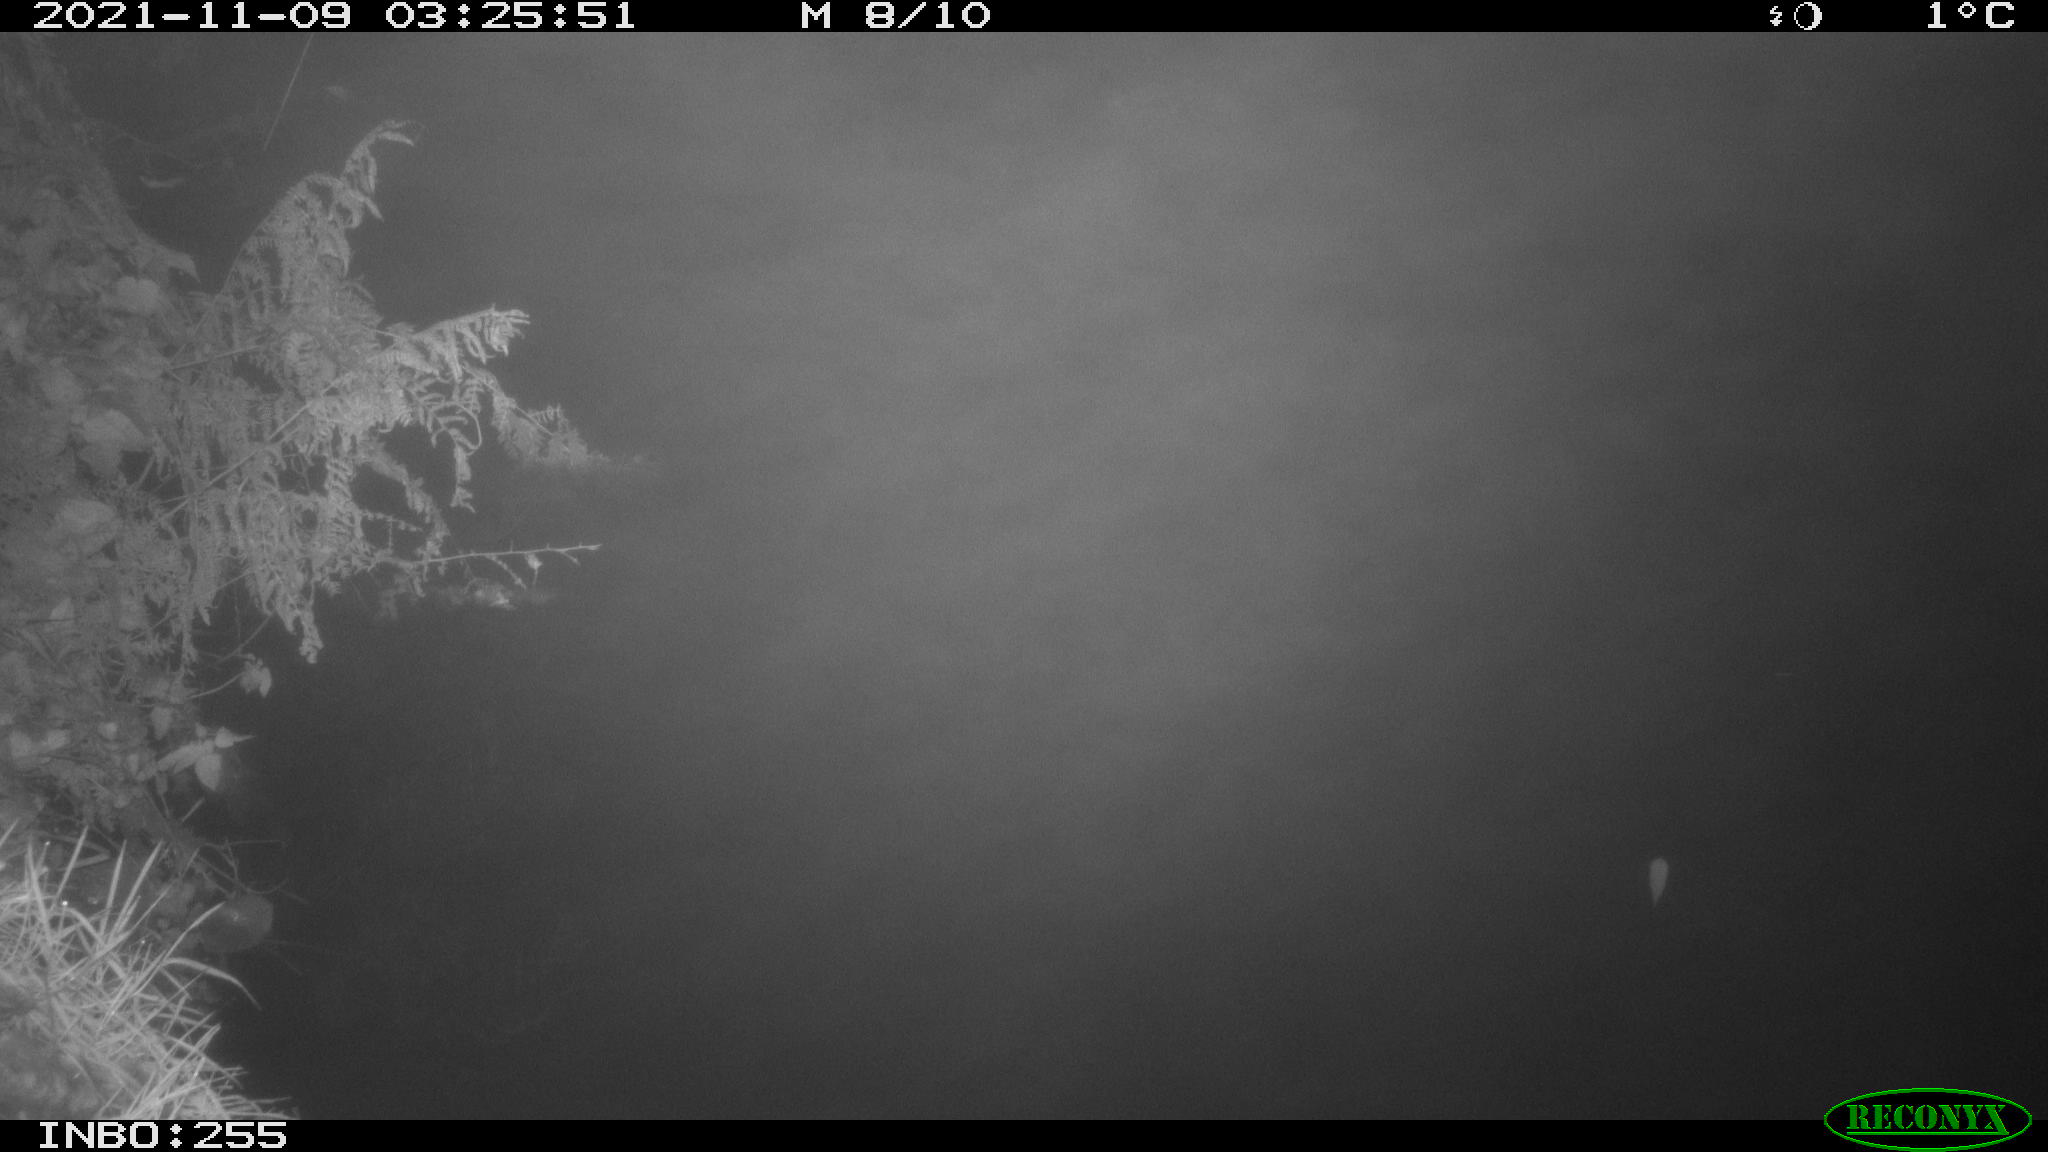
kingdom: Animalia
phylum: Chordata
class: Aves
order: Anseriformes
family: Anatidae
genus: Anas
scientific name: Anas platyrhynchos
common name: Mallard
